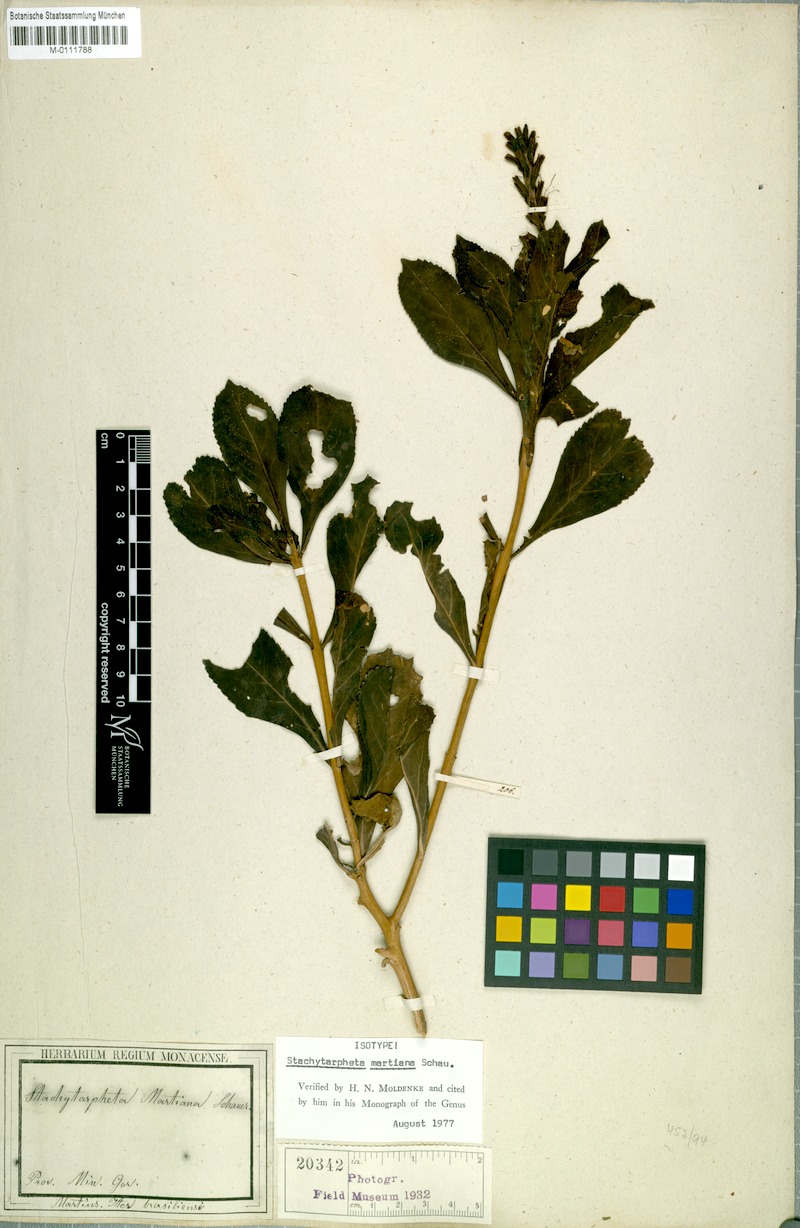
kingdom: Plantae
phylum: Tracheophyta
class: Magnoliopsida
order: Lamiales
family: Verbenaceae
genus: Stachytarpheta
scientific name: Stachytarpheta martiana
